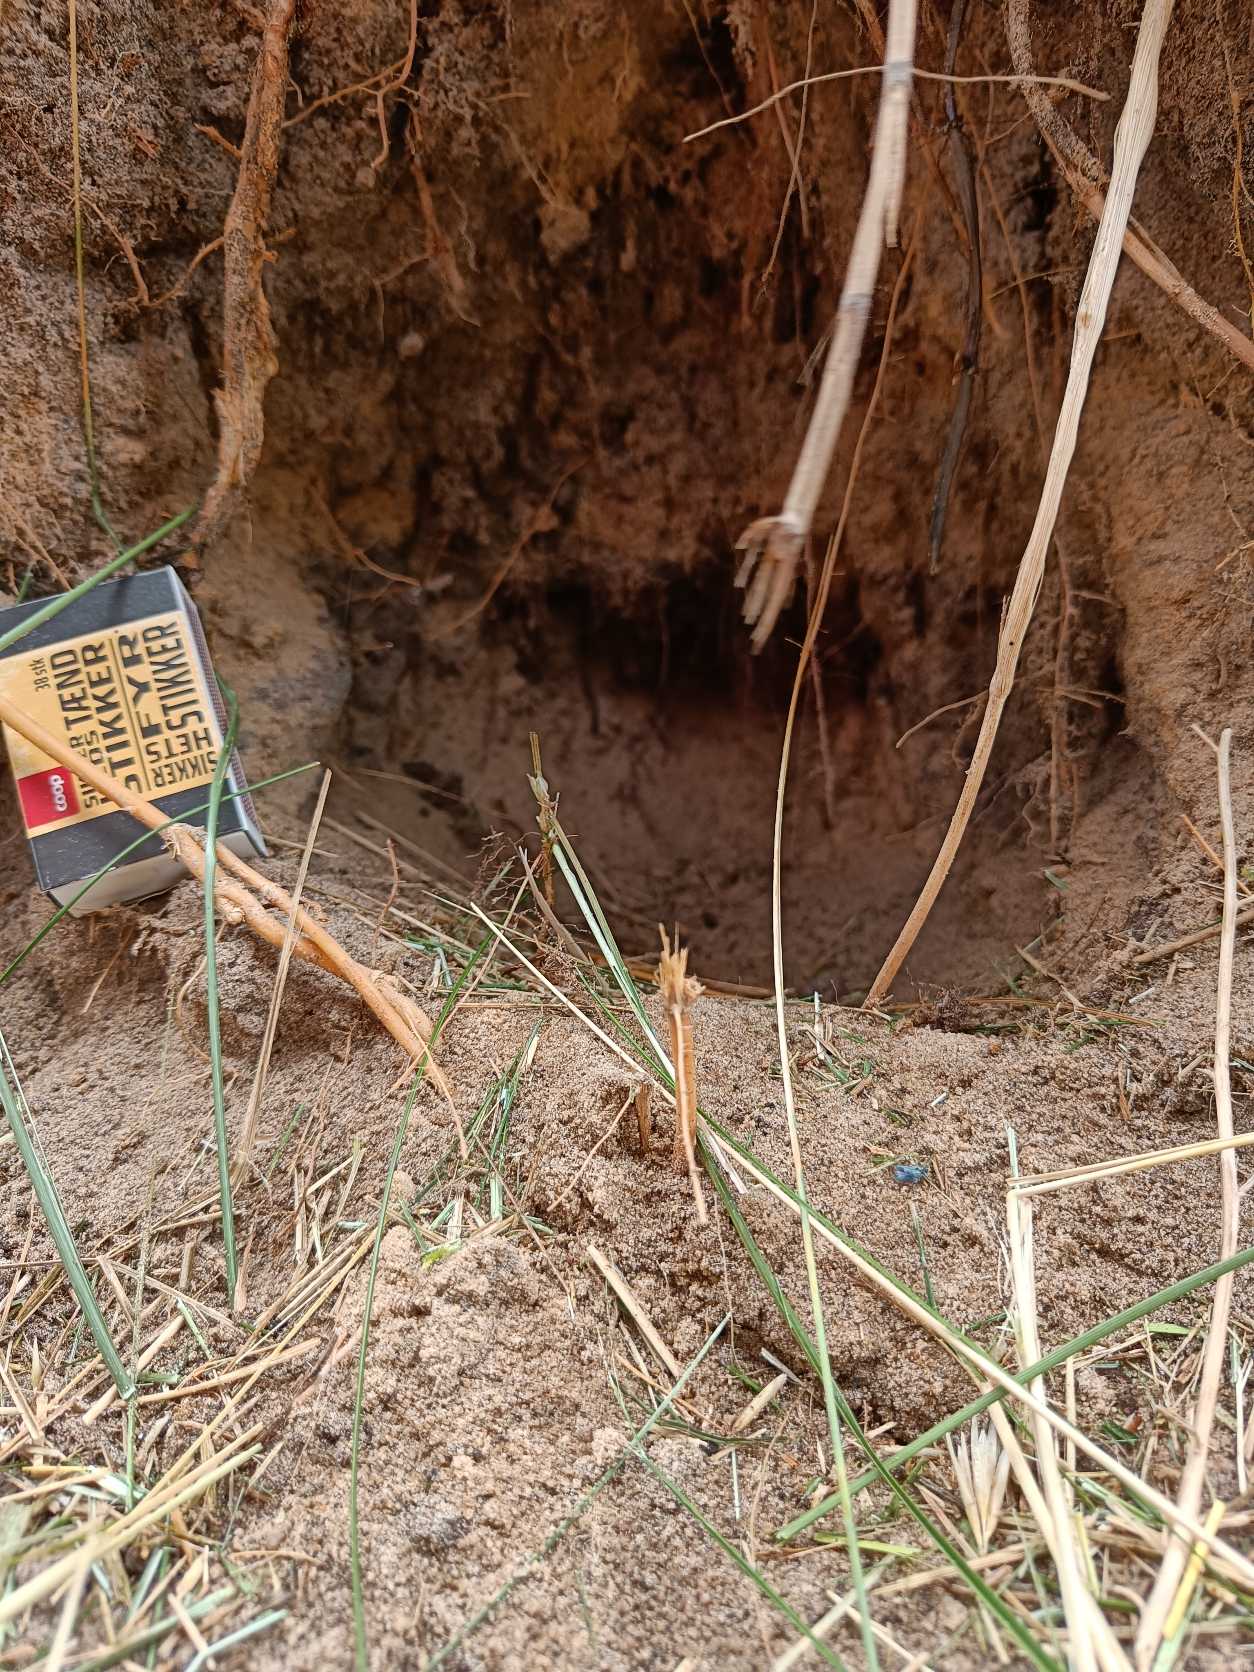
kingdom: Animalia
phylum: Chordata
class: Mammalia
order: Carnivora
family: Canidae
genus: Vulpes
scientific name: Vulpes vulpes
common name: Ræv
